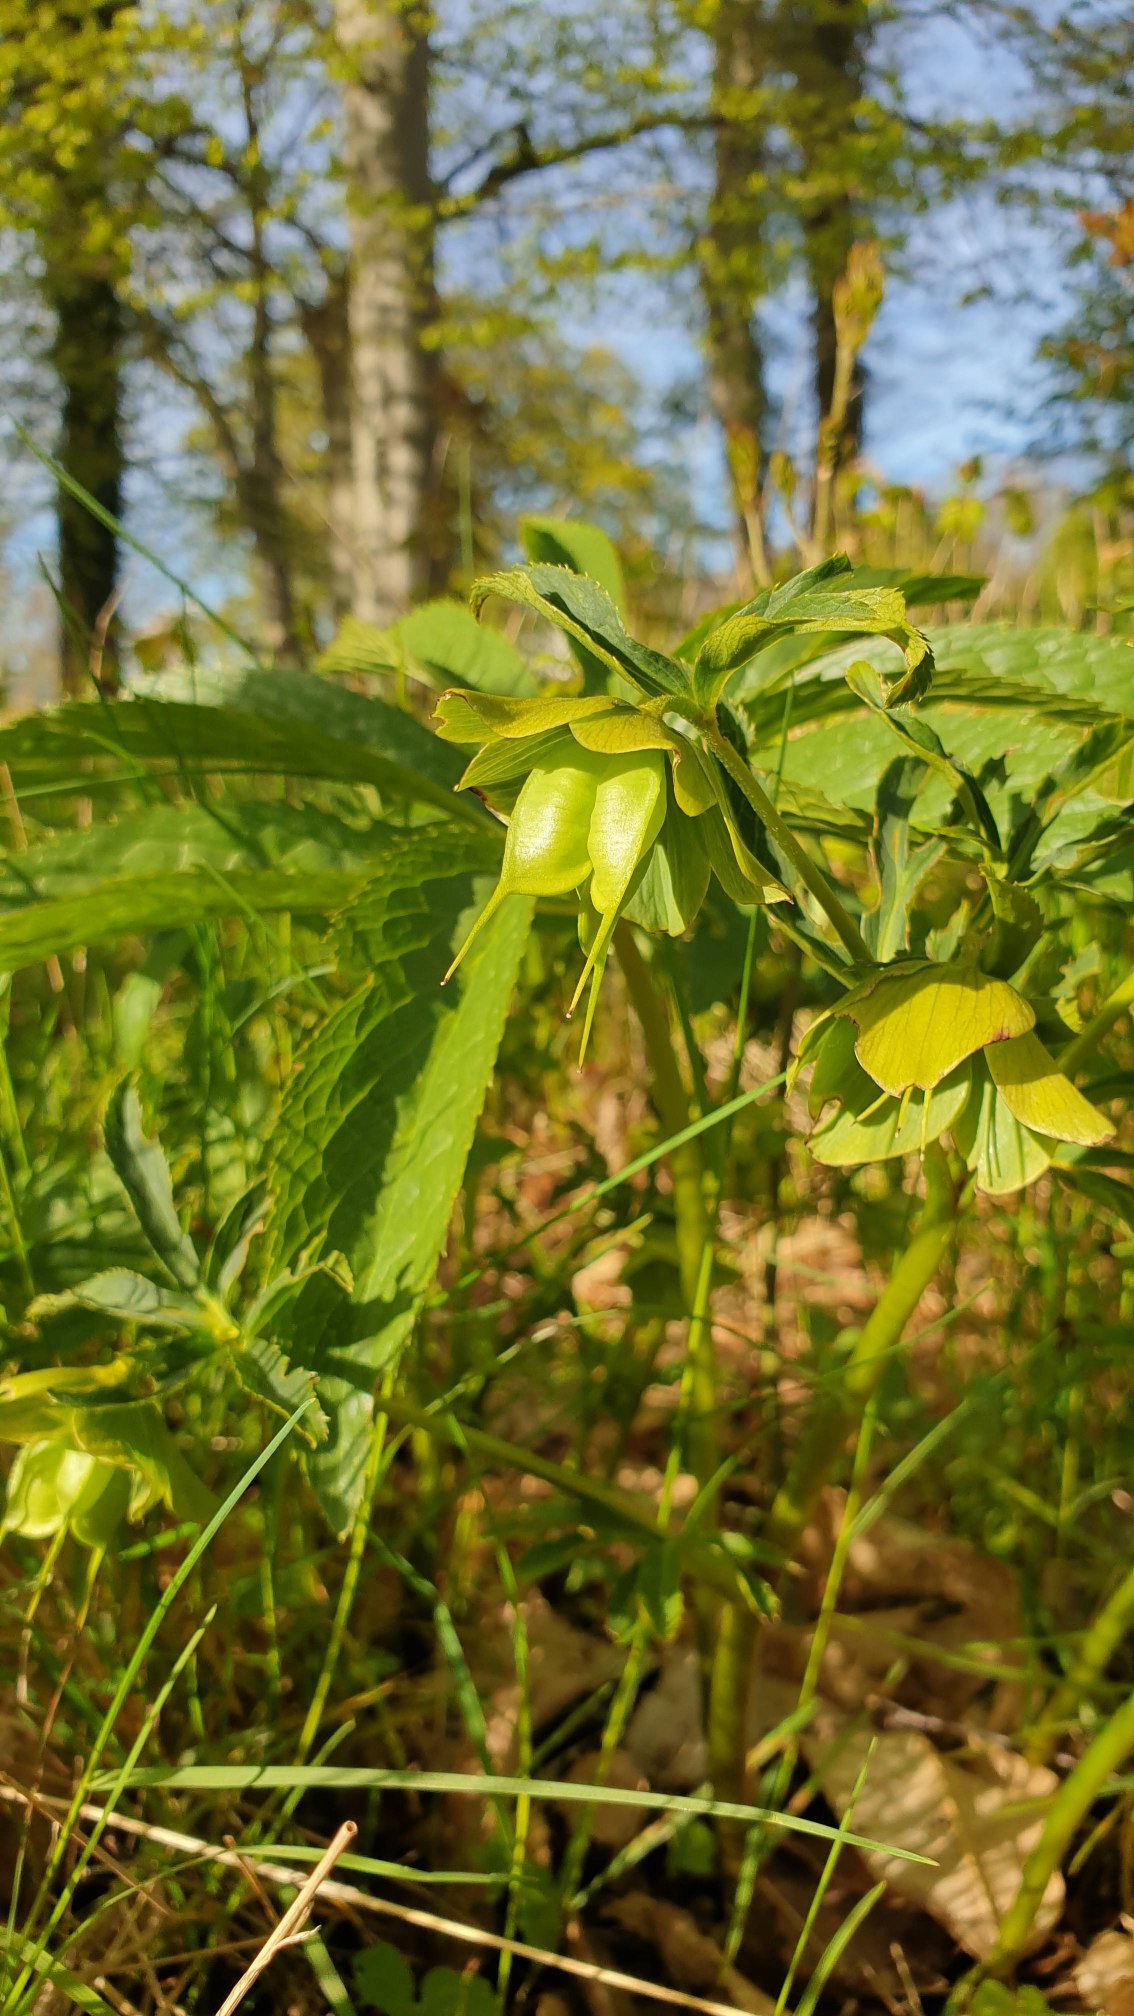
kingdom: Plantae
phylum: Tracheophyta
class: Magnoliopsida
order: Ranunculales
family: Ranunculaceae
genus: Helleborus
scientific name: Helleborus viridis
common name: Grøn julerose
